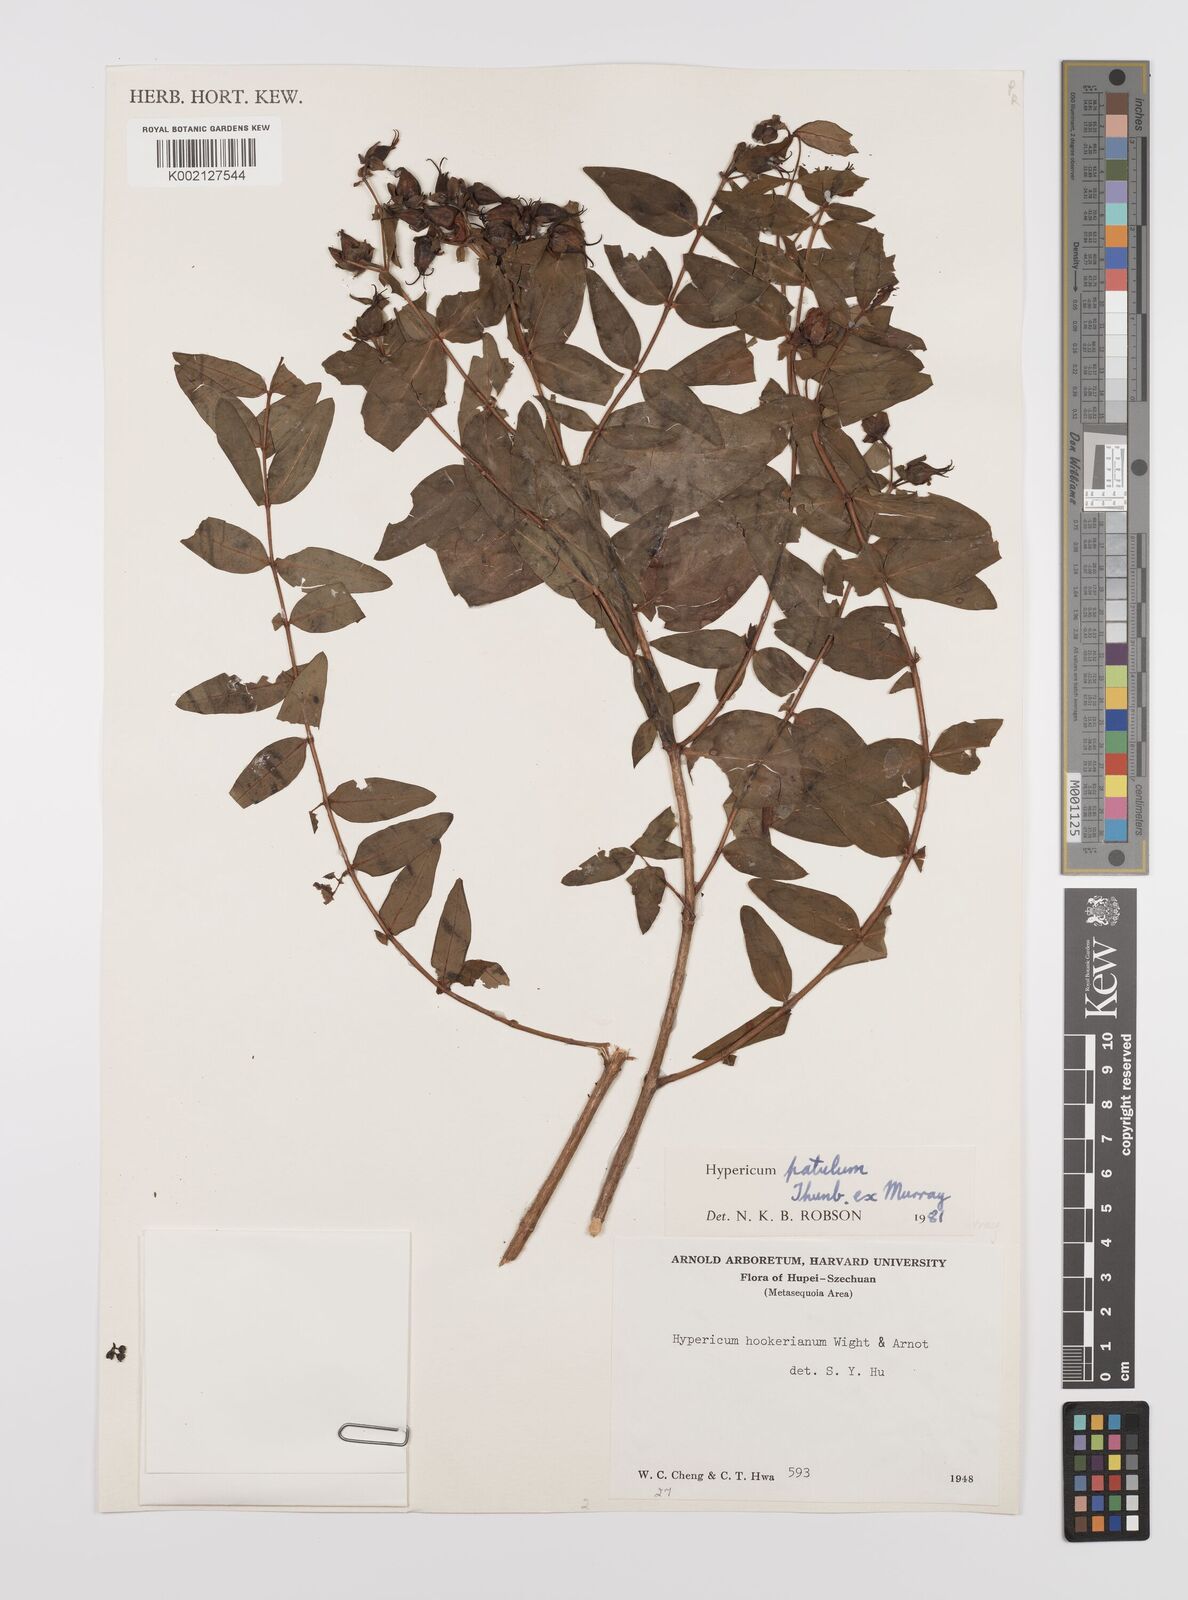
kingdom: Plantae
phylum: Tracheophyta
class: Magnoliopsida
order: Malpighiales
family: Hypericaceae
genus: Hypericum
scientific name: Hypericum patulum
